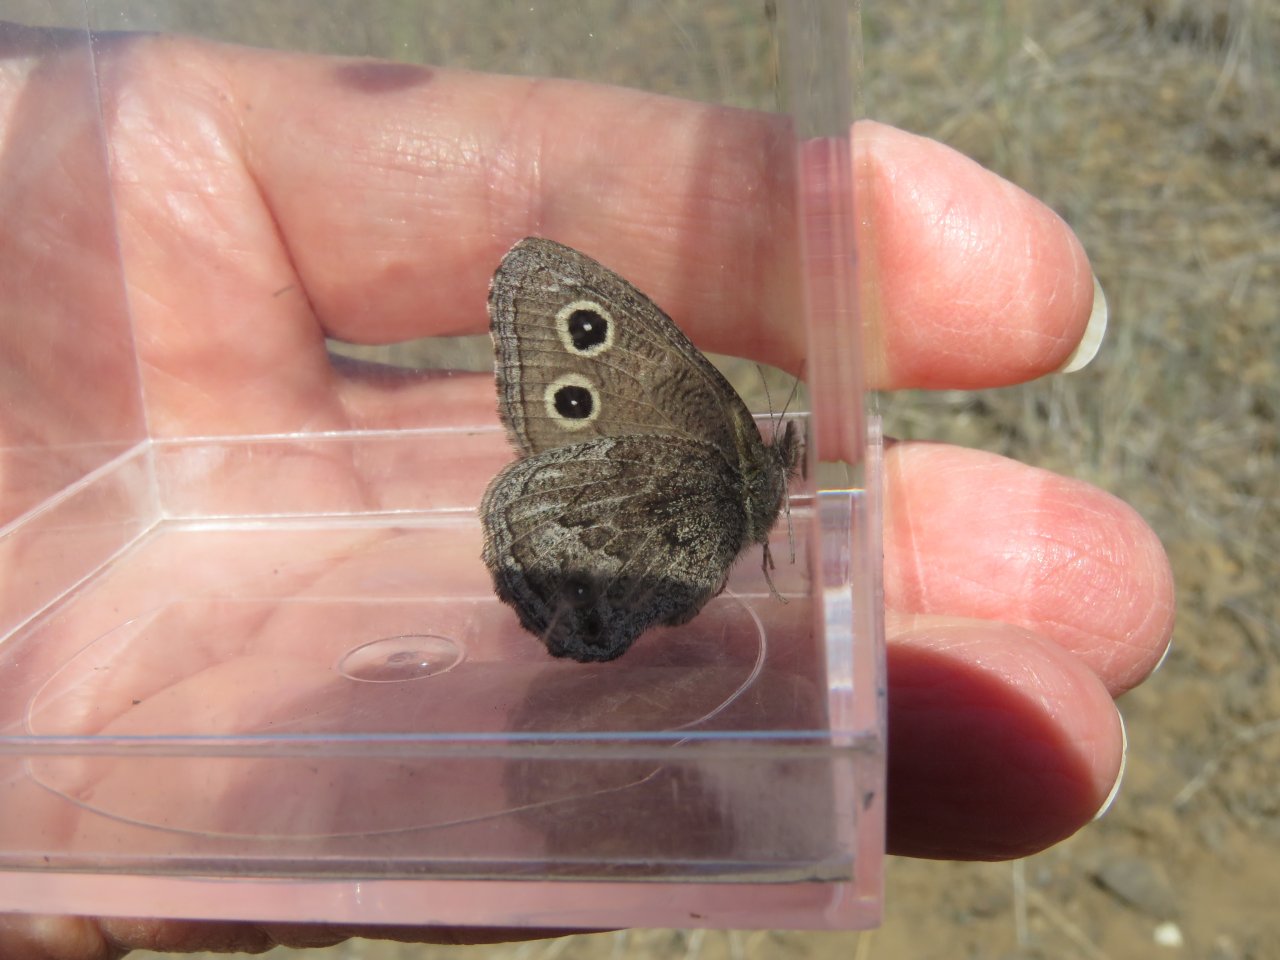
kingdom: Animalia
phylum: Arthropoda
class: Insecta
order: Lepidoptera
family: Nymphalidae
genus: Cercyonis
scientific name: Cercyonis oetus
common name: Small Wood-Nymph
